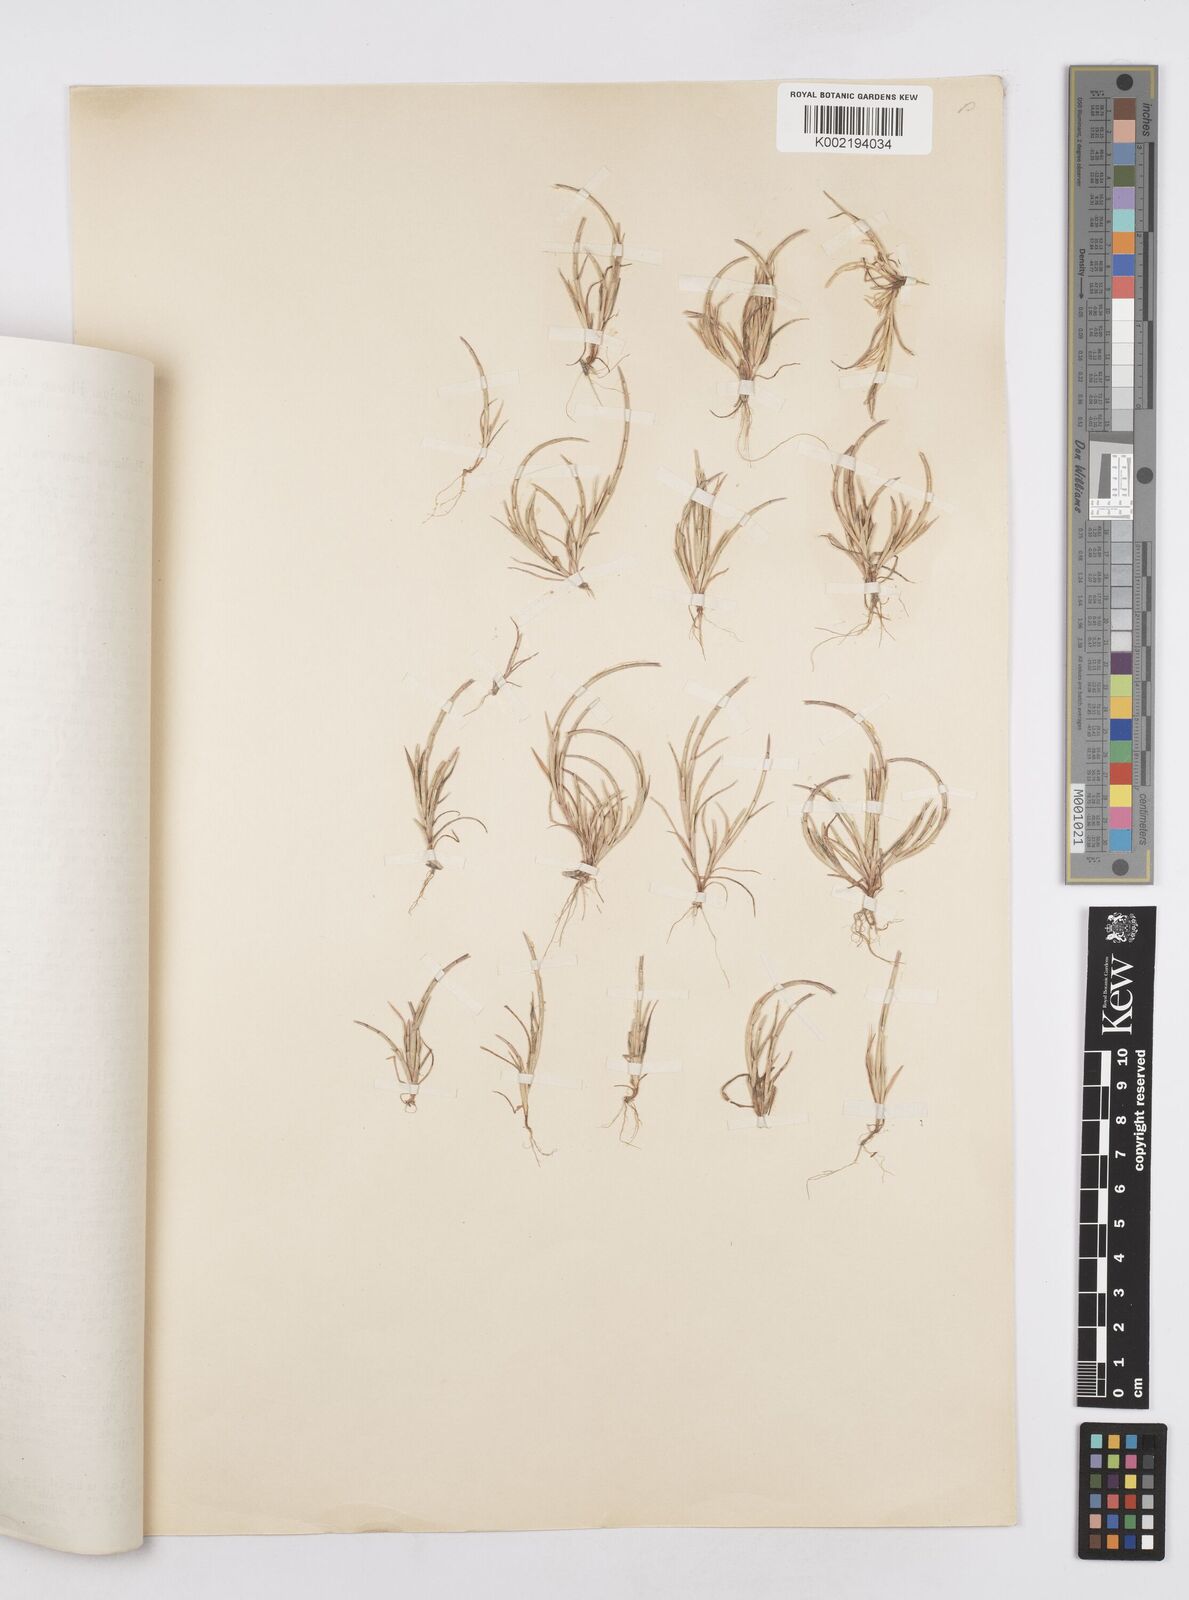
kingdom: Plantae
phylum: Tracheophyta
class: Liliopsida
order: Poales
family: Poaceae
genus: Parapholis
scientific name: Parapholis incurva
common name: Curved sicklegrass
